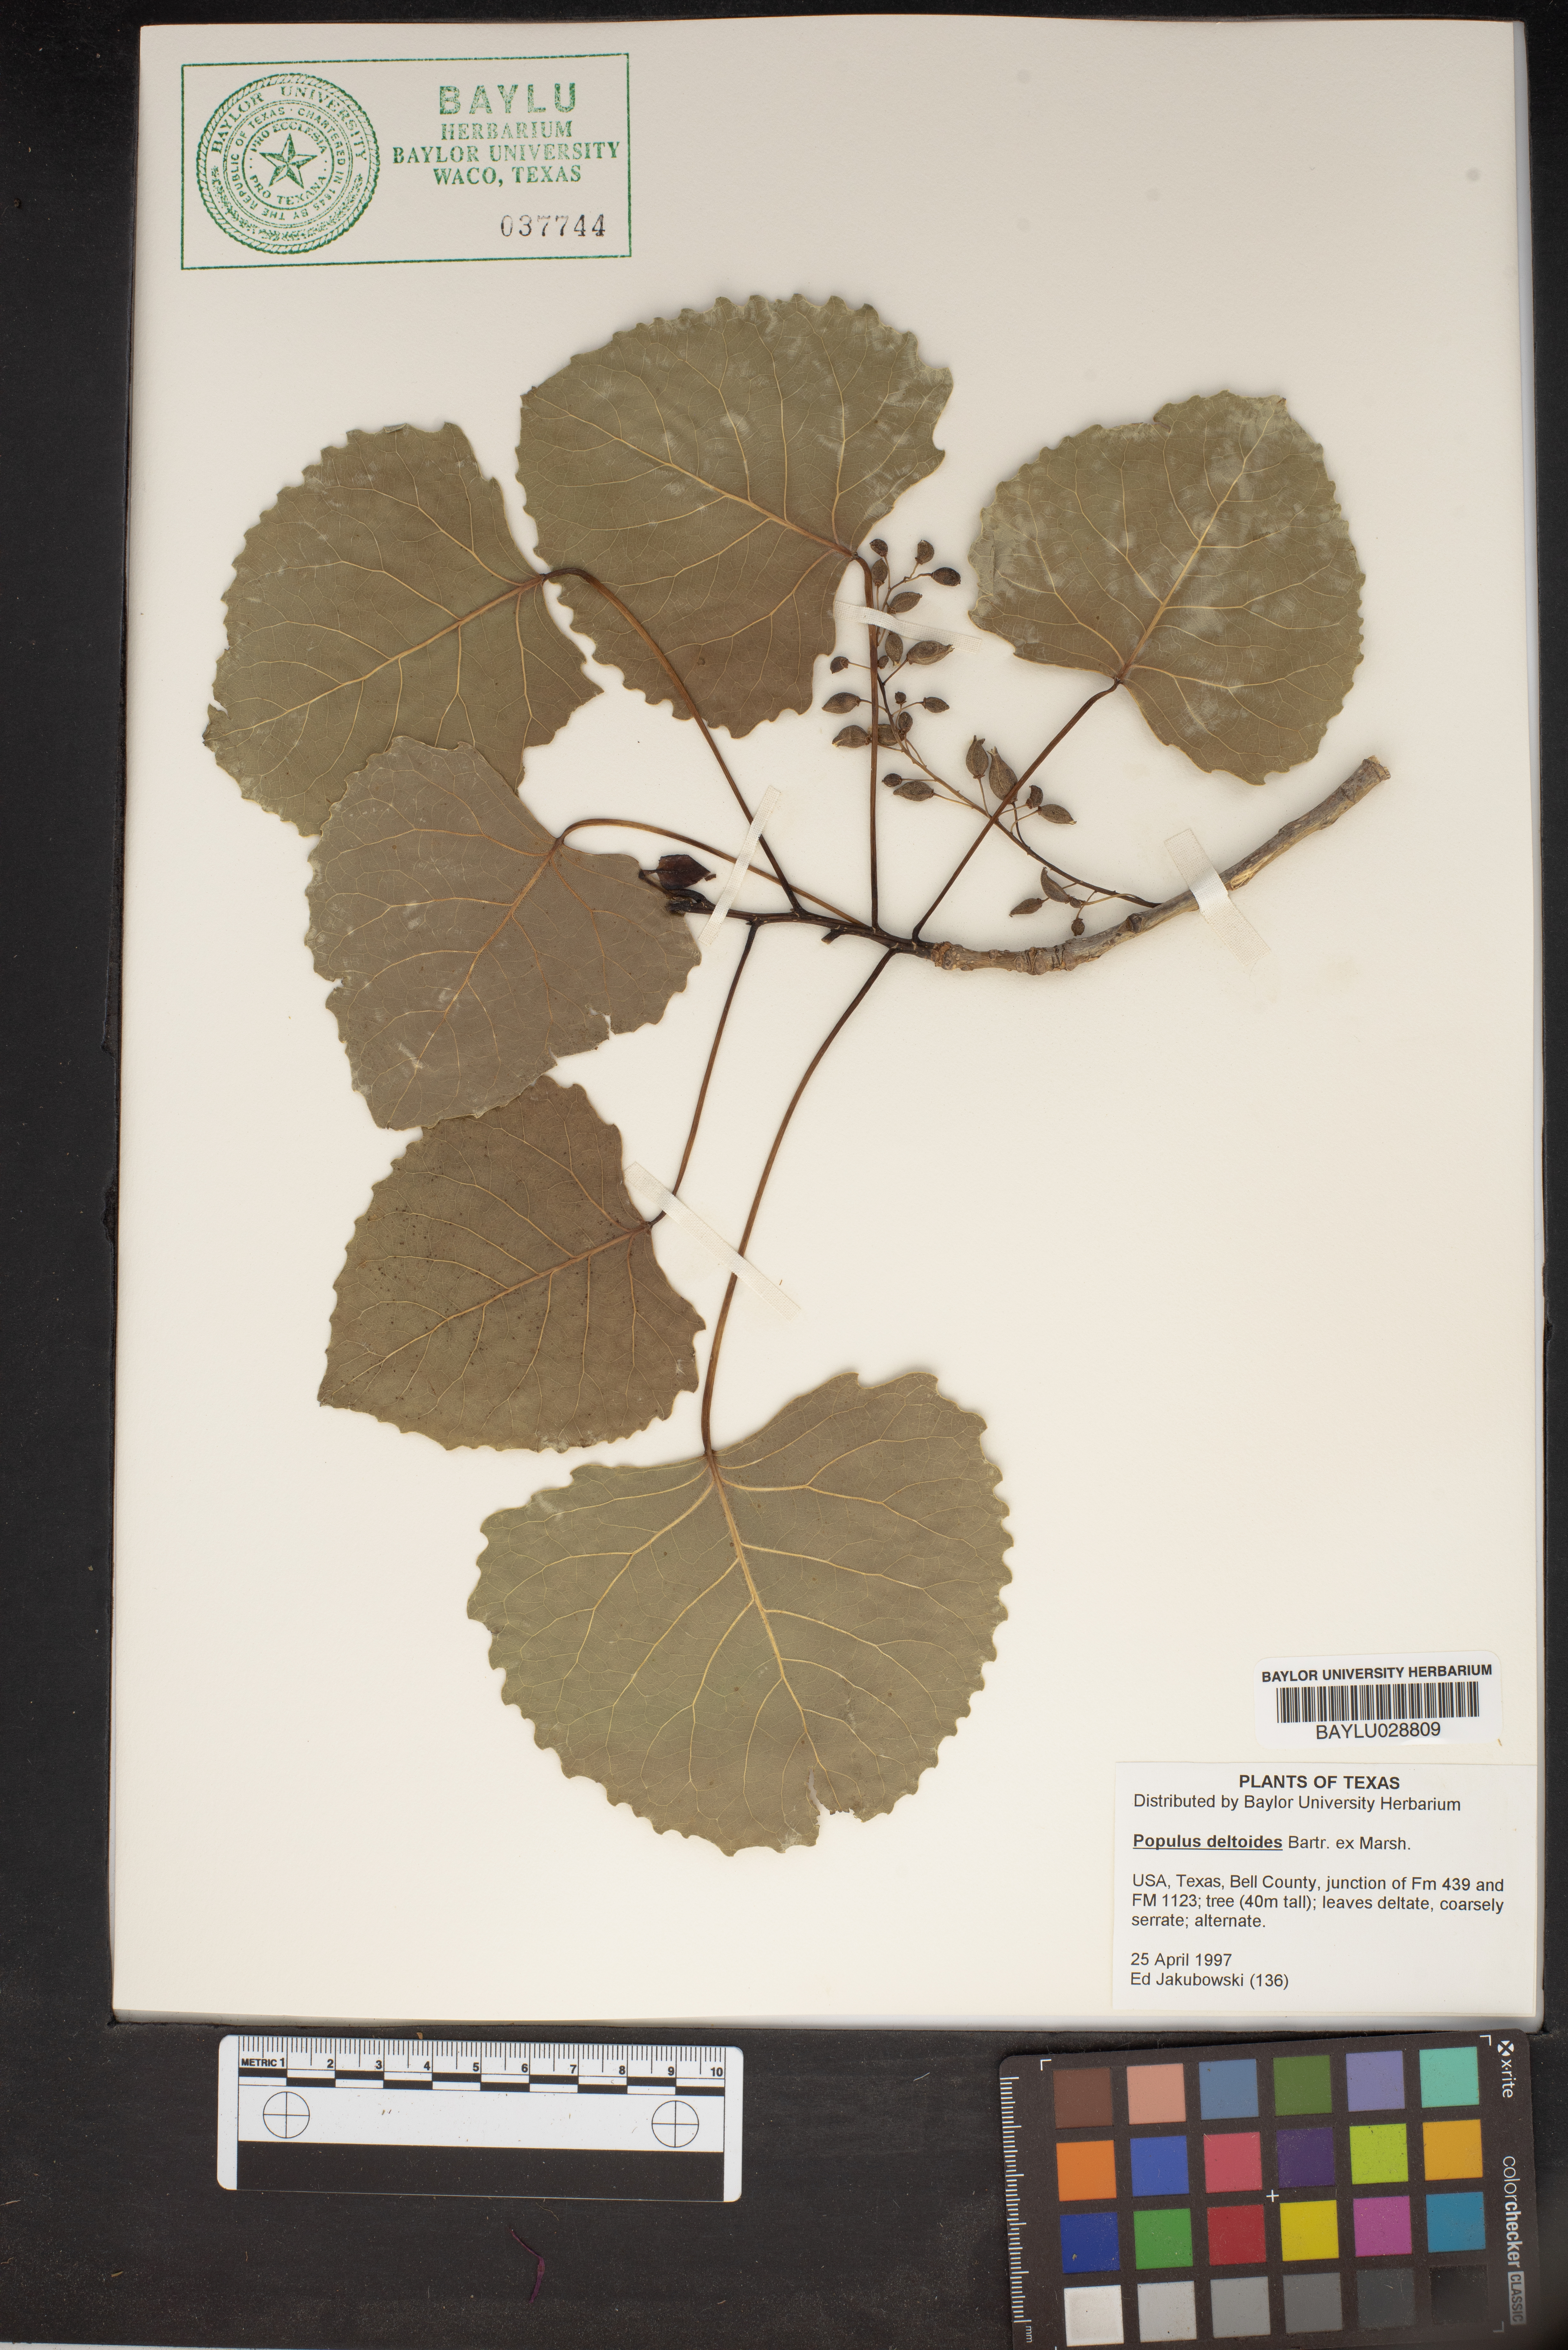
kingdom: Plantae
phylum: Tracheophyta
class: Magnoliopsida
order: Malpighiales
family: Salicaceae
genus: Populus
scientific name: Populus deltoides
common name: Eastern cottonwood
